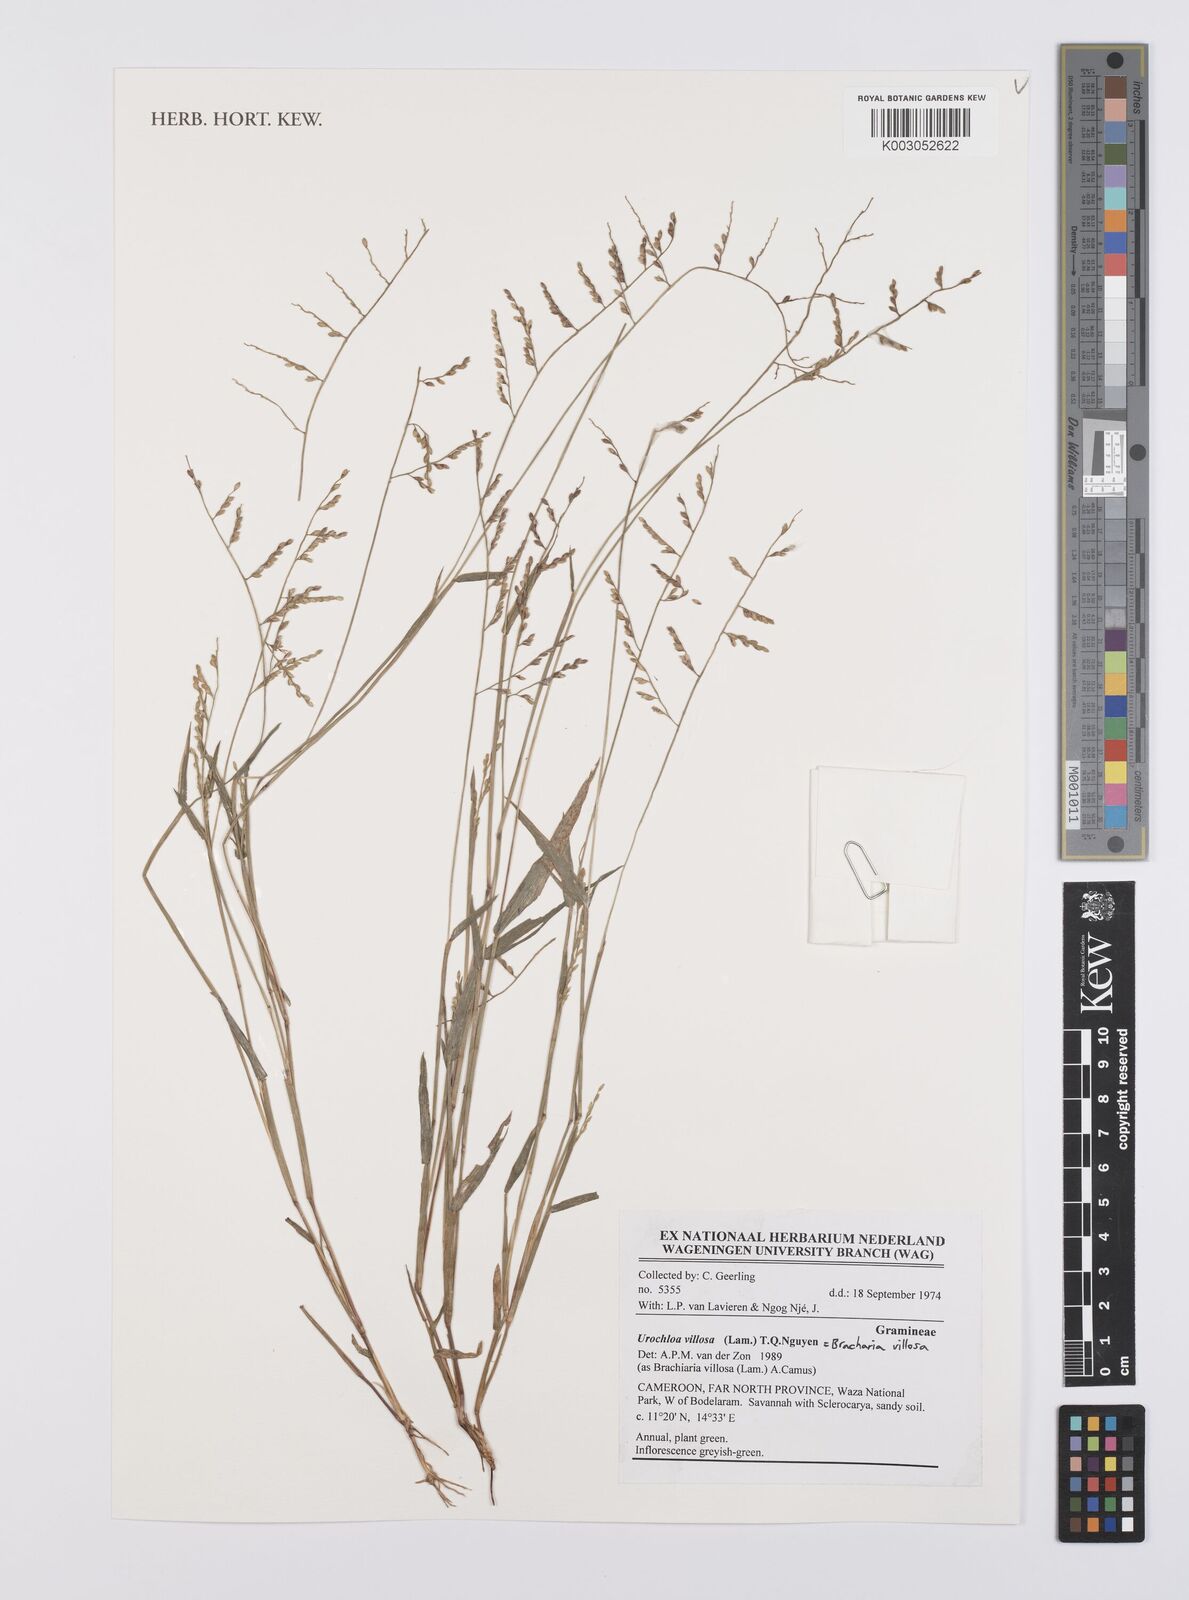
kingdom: Plantae
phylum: Tracheophyta
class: Liliopsida
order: Poales
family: Poaceae
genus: Urochloa
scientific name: Urochloa villosa
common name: Hairy signalgrass
